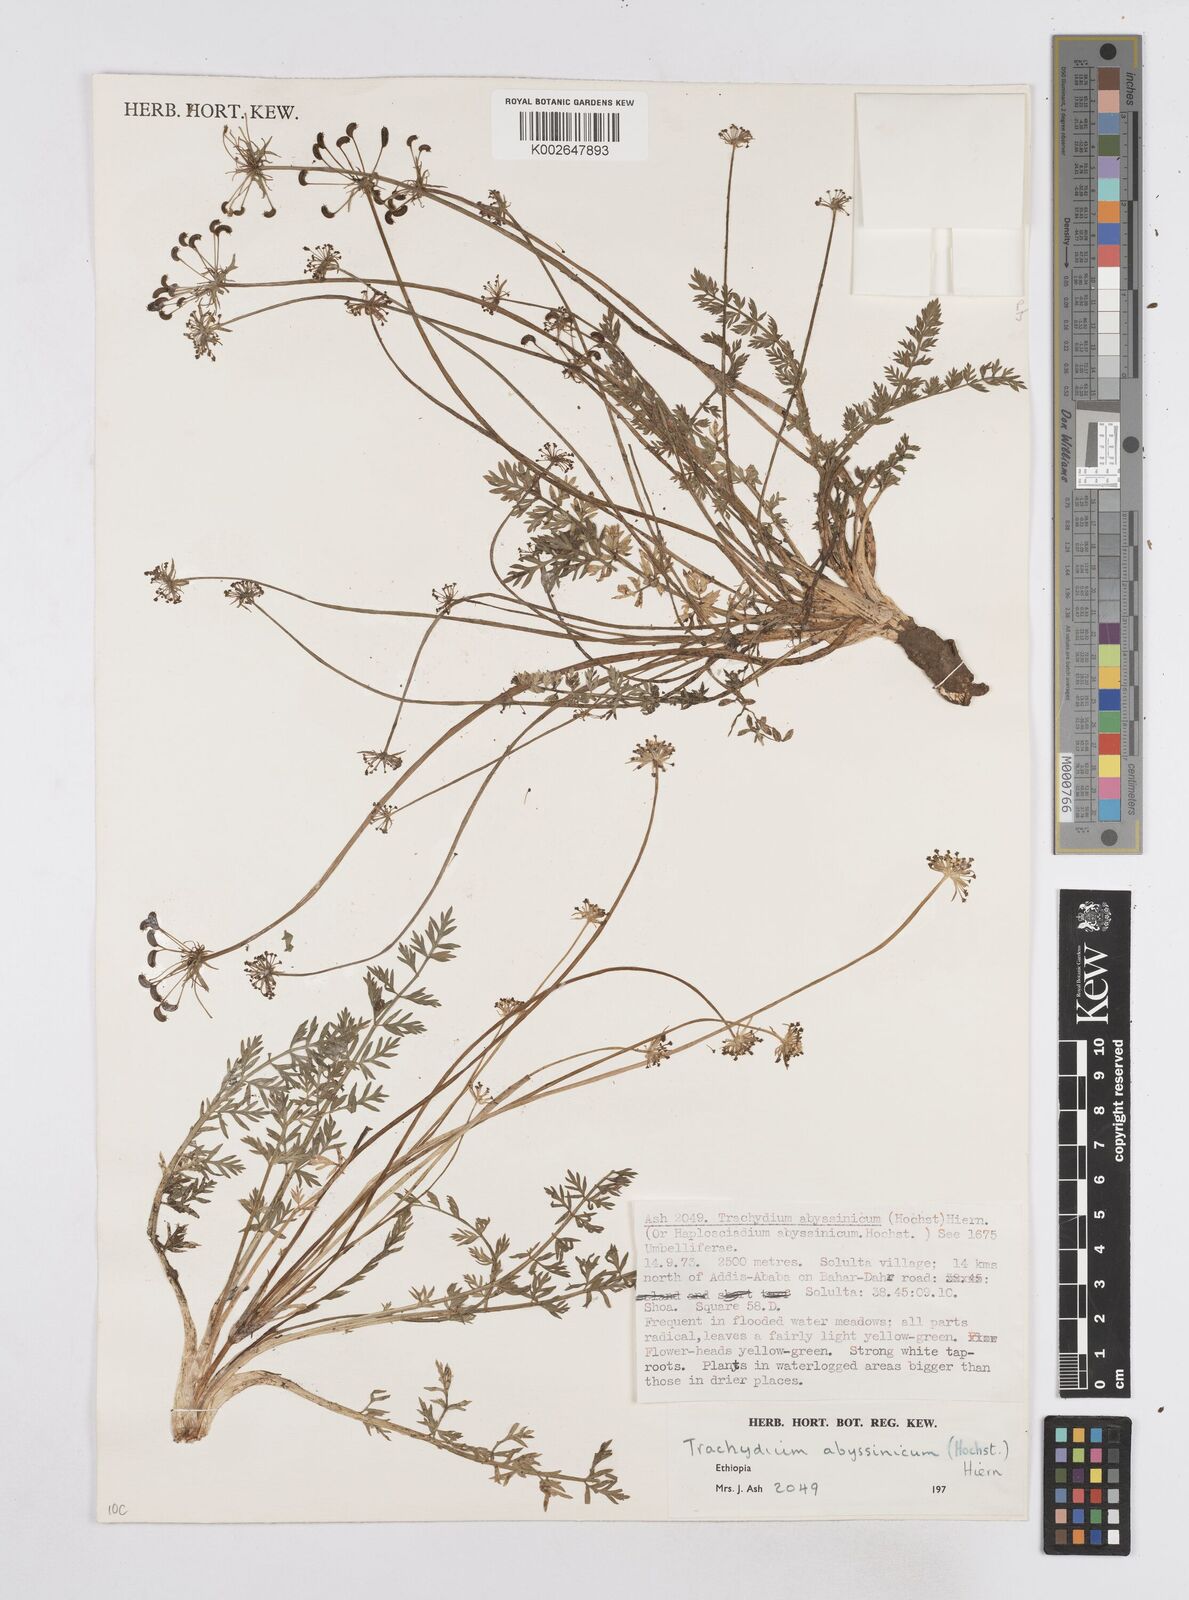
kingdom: Plantae
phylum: Tracheophyta
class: Magnoliopsida
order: Apiales
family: Apiaceae
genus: Haplosciadium
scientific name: Haplosciadium abyssinicum
